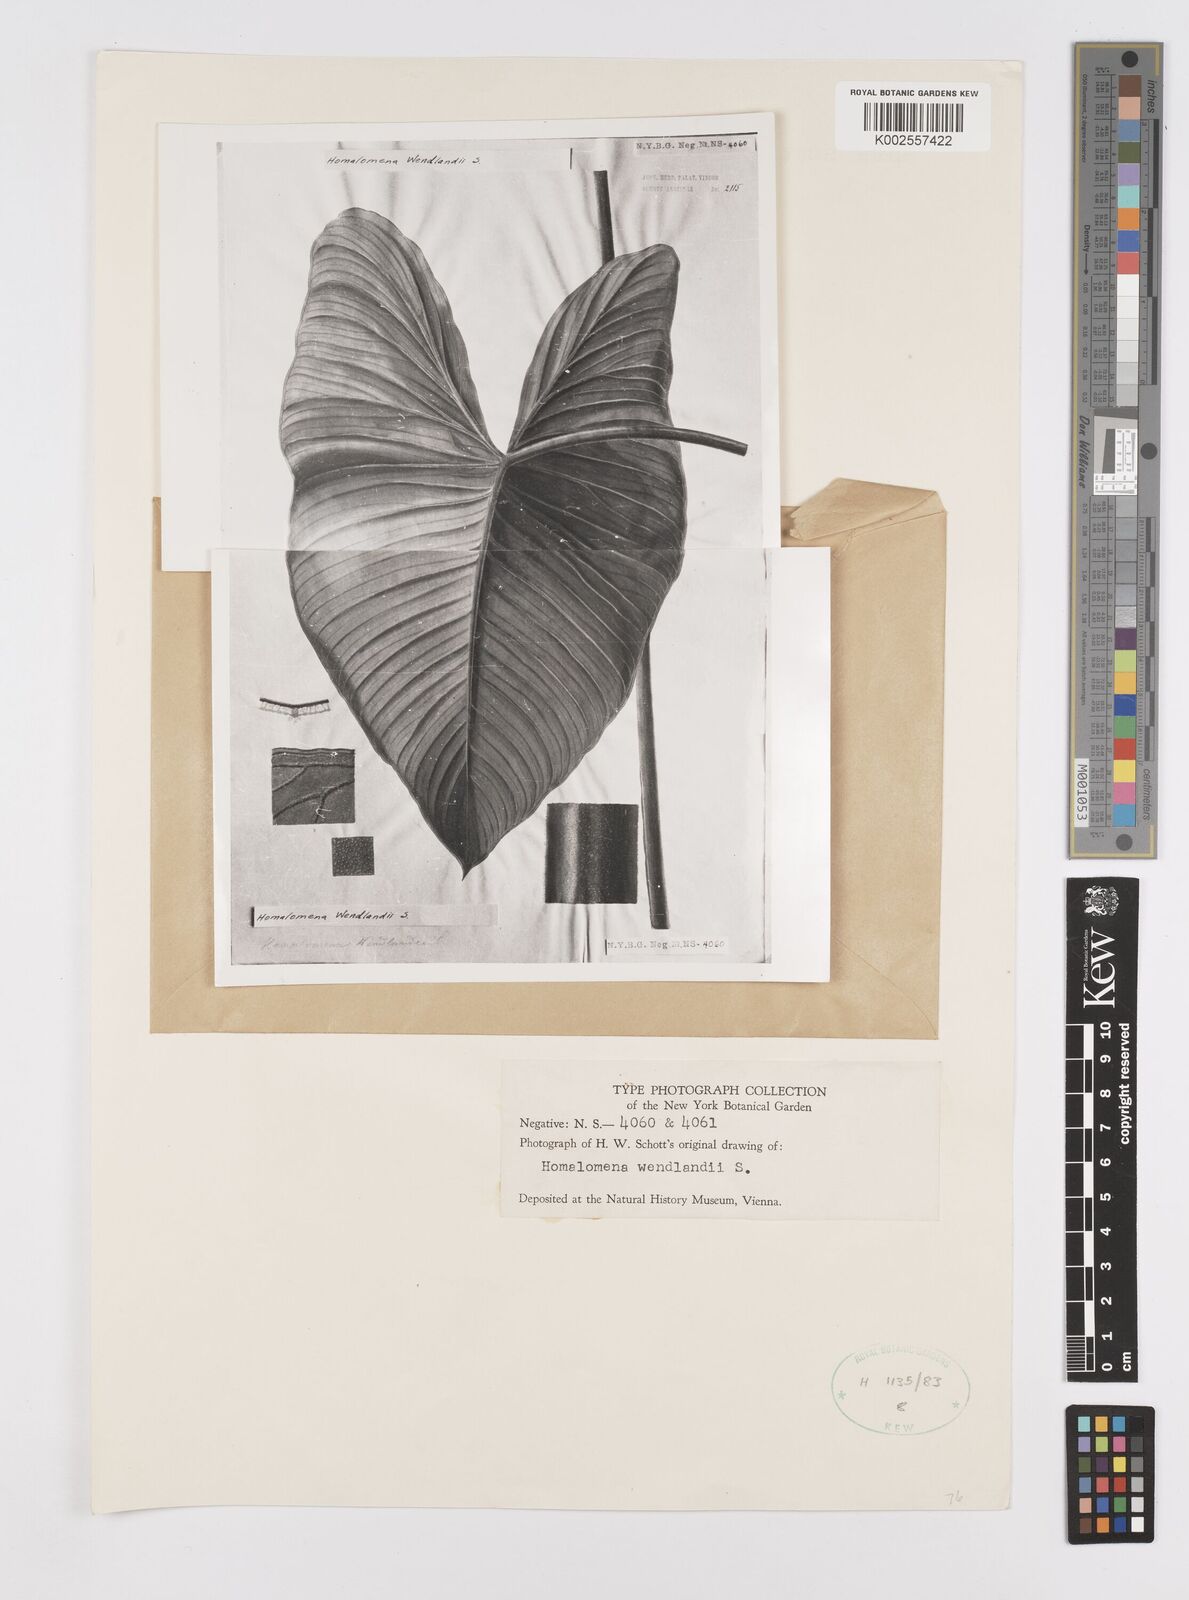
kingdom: Plantae
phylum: Tracheophyta
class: Liliopsida
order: Alismatales
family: Araceae
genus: Adelonema
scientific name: Adelonema wendlandii
